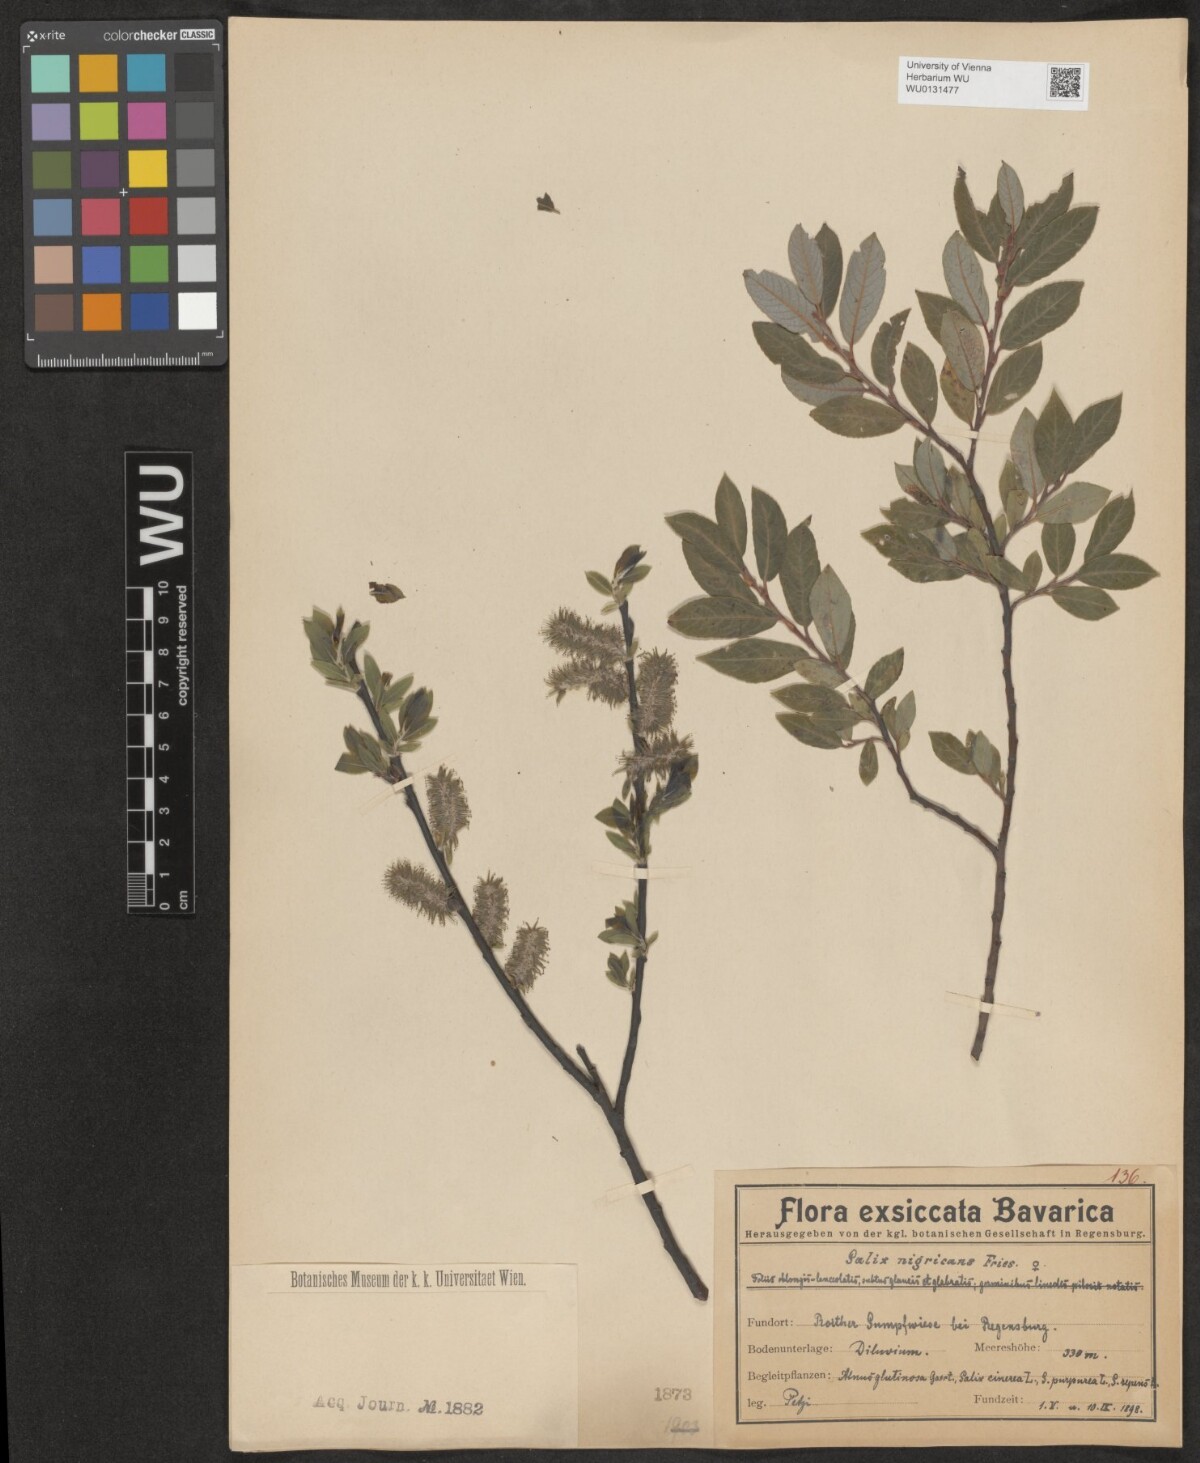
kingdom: Plantae
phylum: Tracheophyta
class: Magnoliopsida
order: Malpighiales
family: Salicaceae
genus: Salix
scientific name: Salix myrsinifolia
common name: Dark-leaved willow
